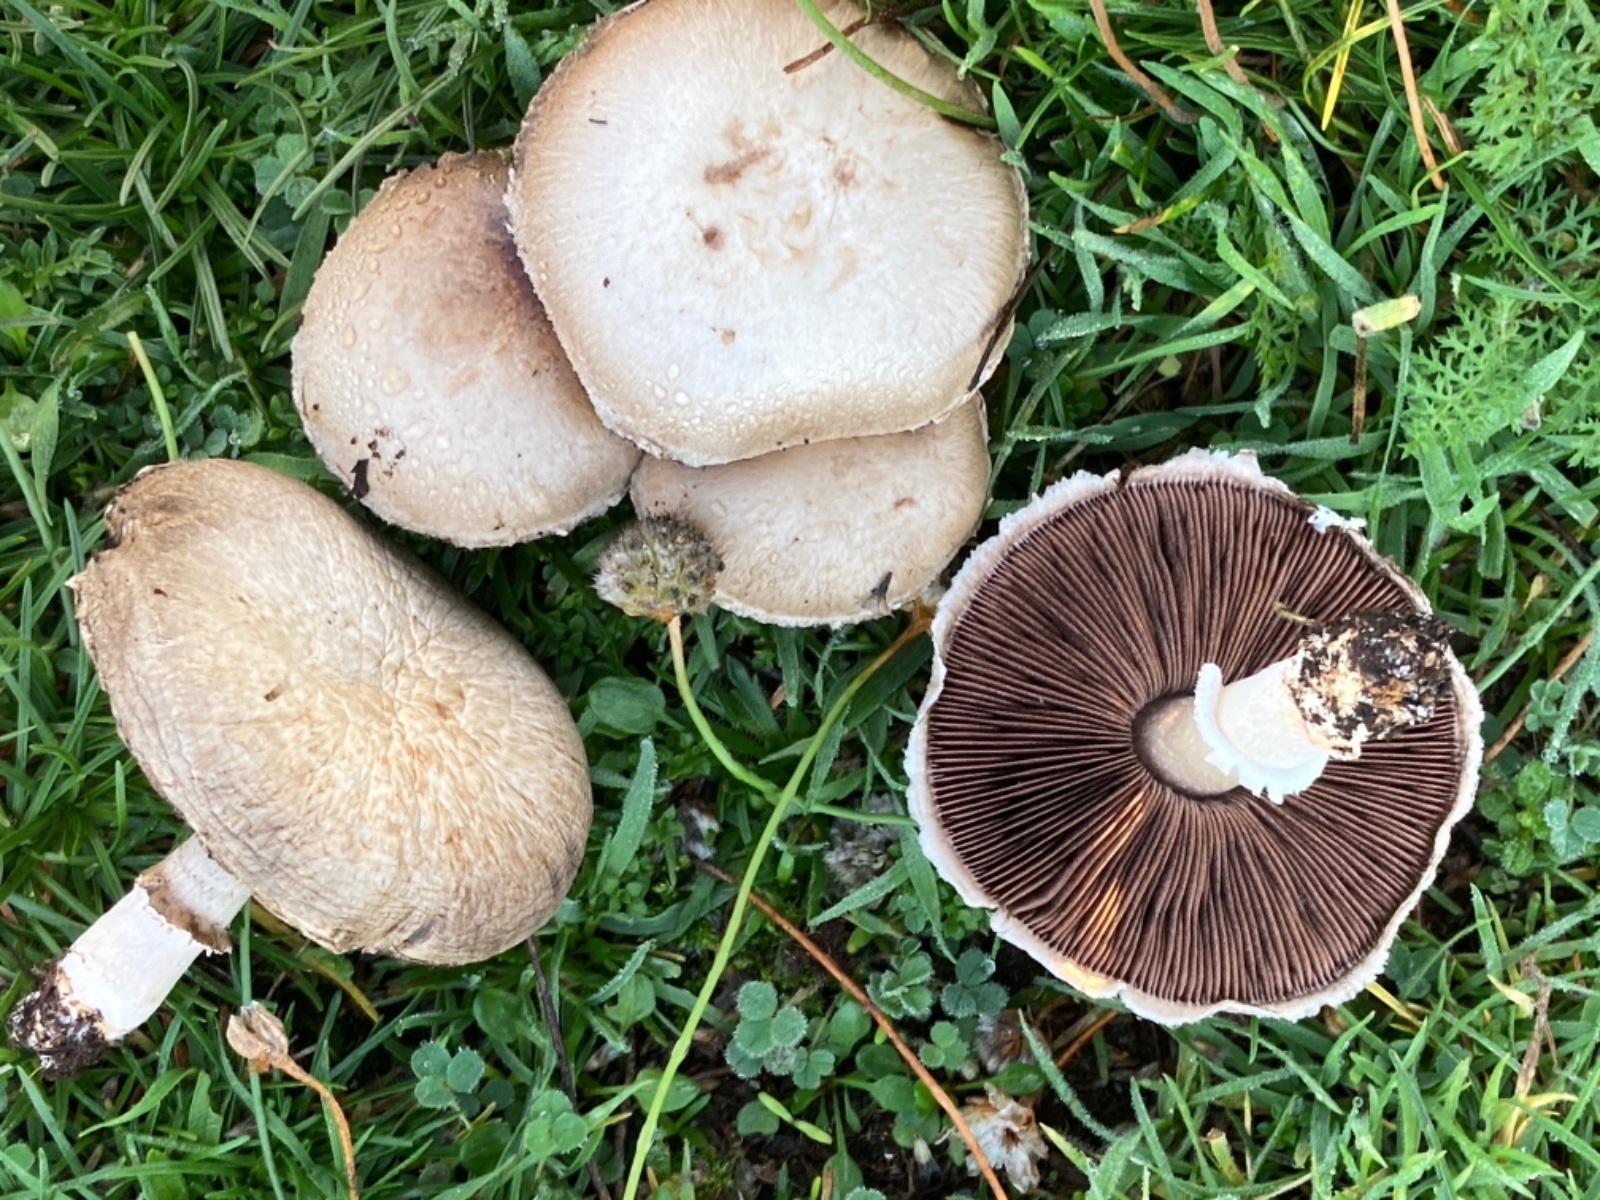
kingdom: Fungi
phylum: Basidiomycota
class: Agaricomycetes
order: Agaricales
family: Agaricaceae
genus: Agaricus
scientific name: Agaricus
